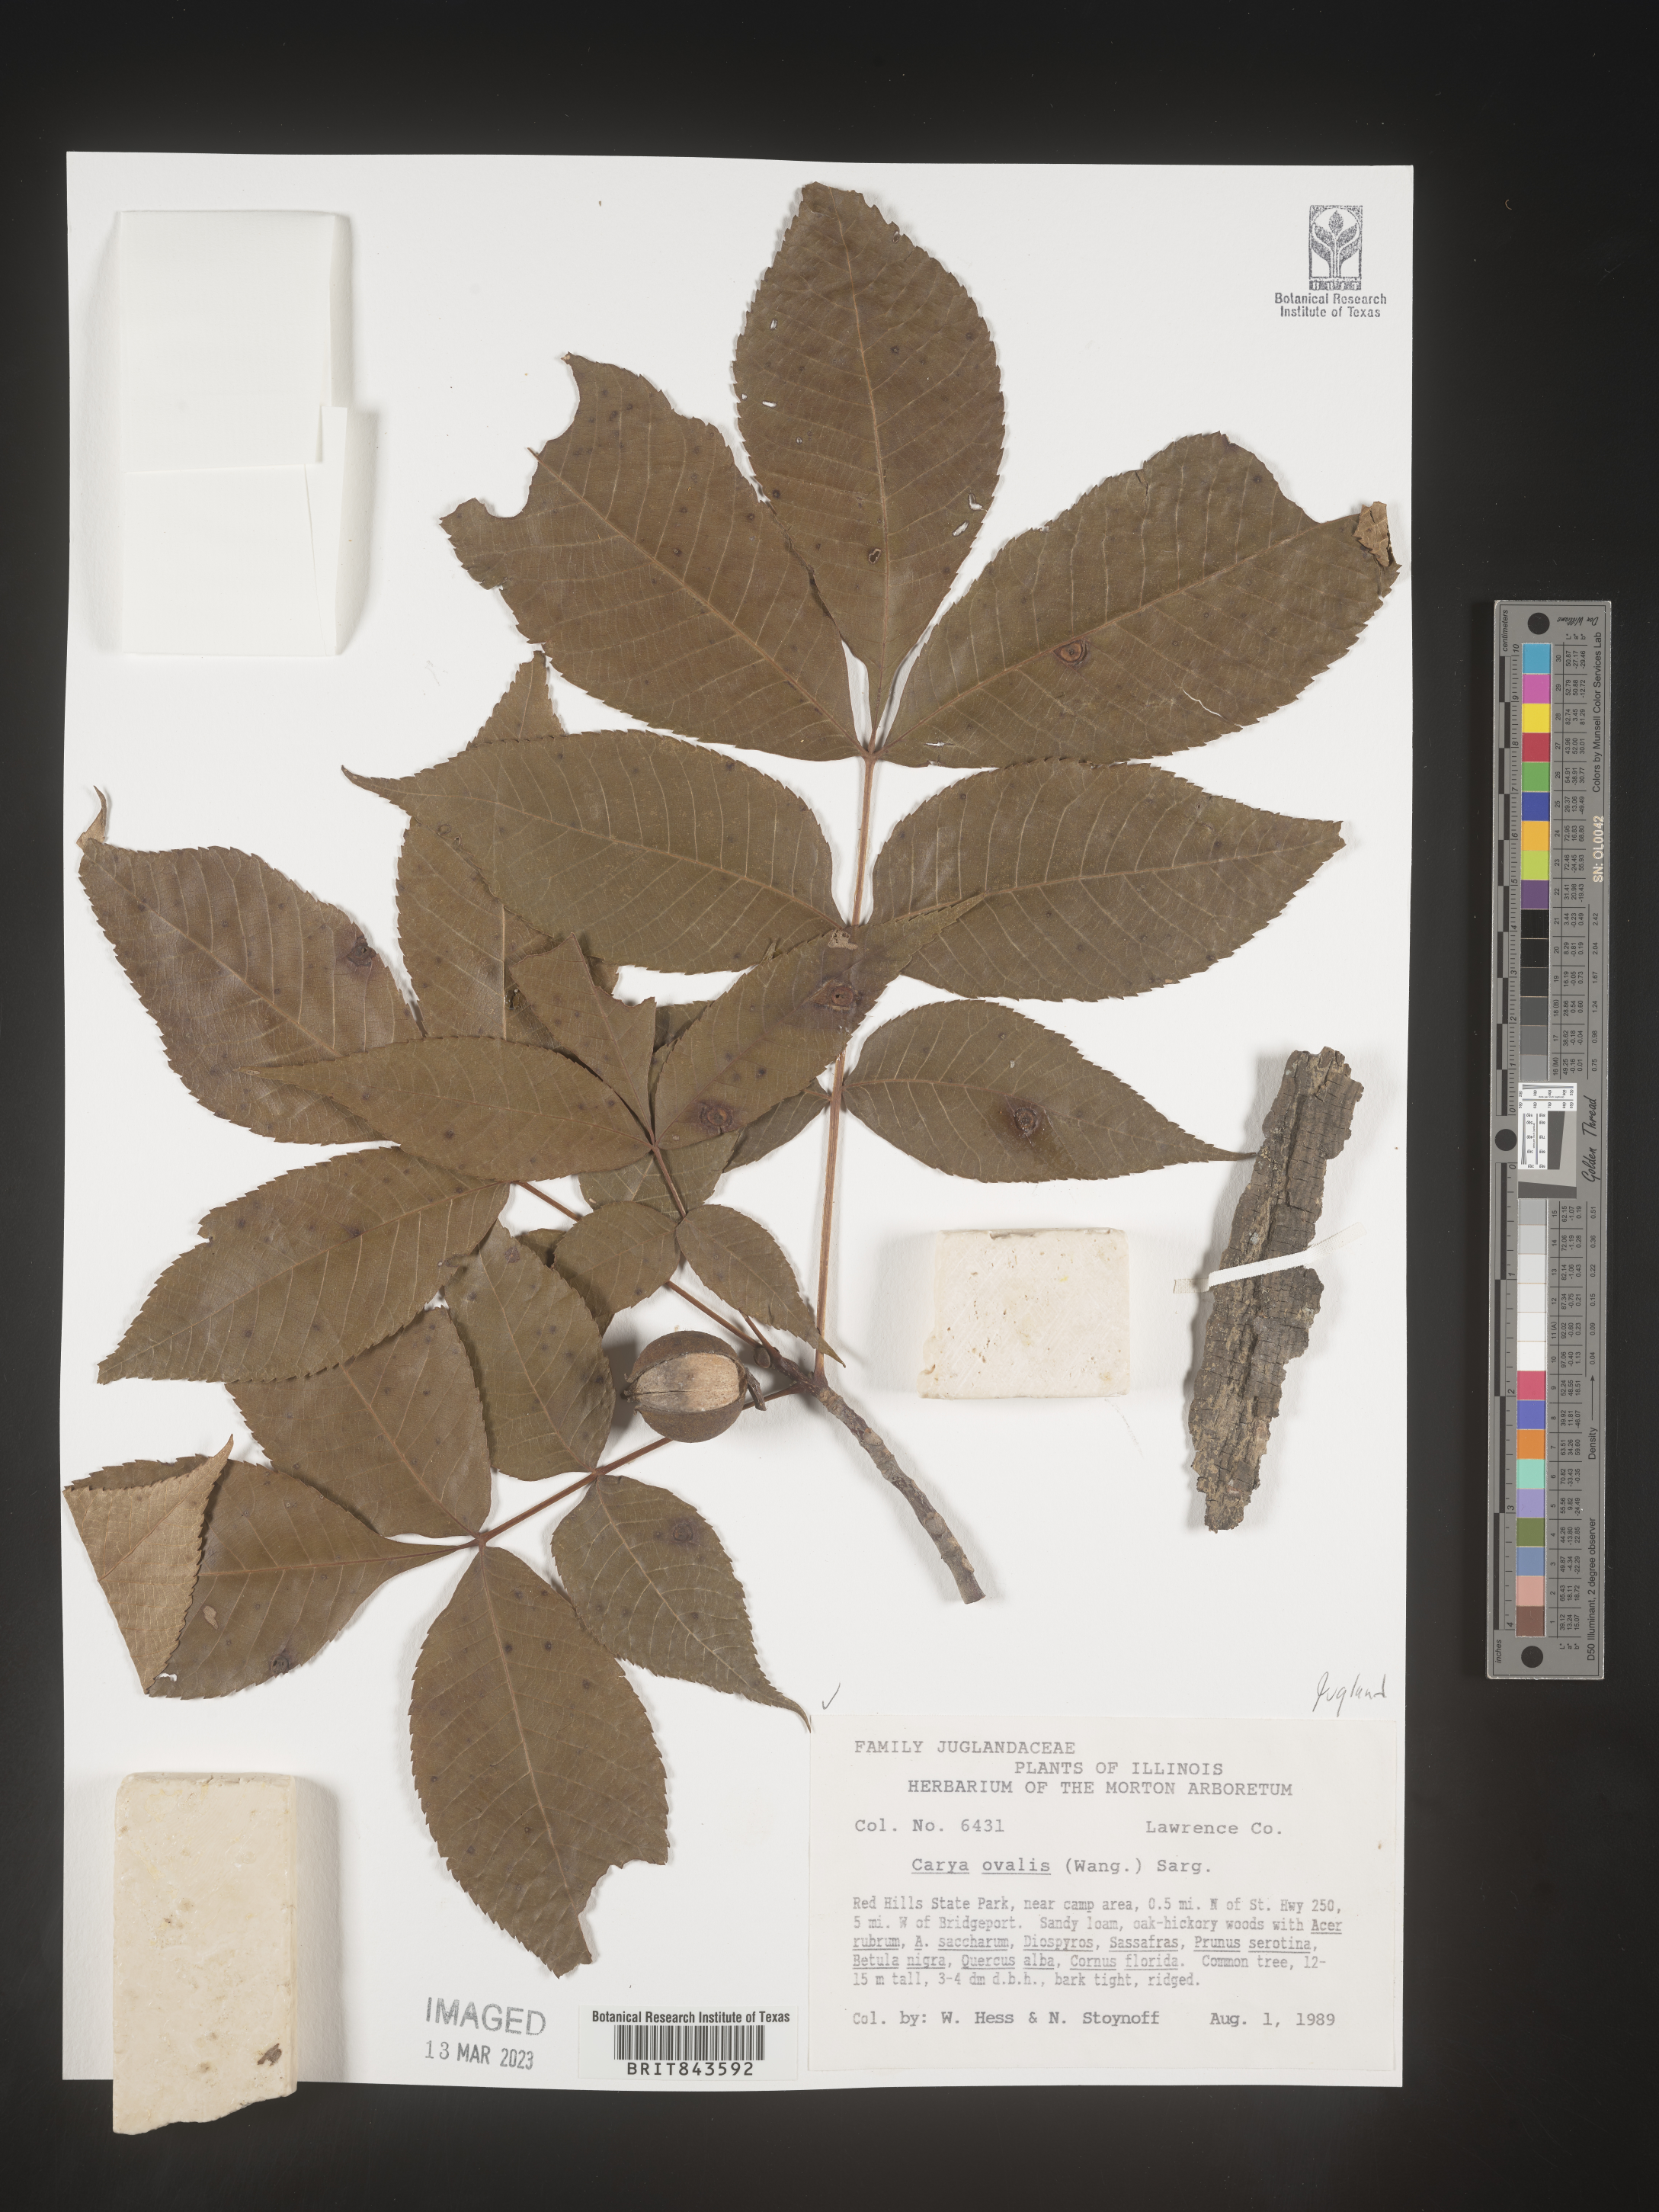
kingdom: Plantae
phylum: Tracheophyta
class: Magnoliopsida
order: Fagales
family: Juglandaceae
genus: Carya
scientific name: Carya ovalis
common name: False shagbark
